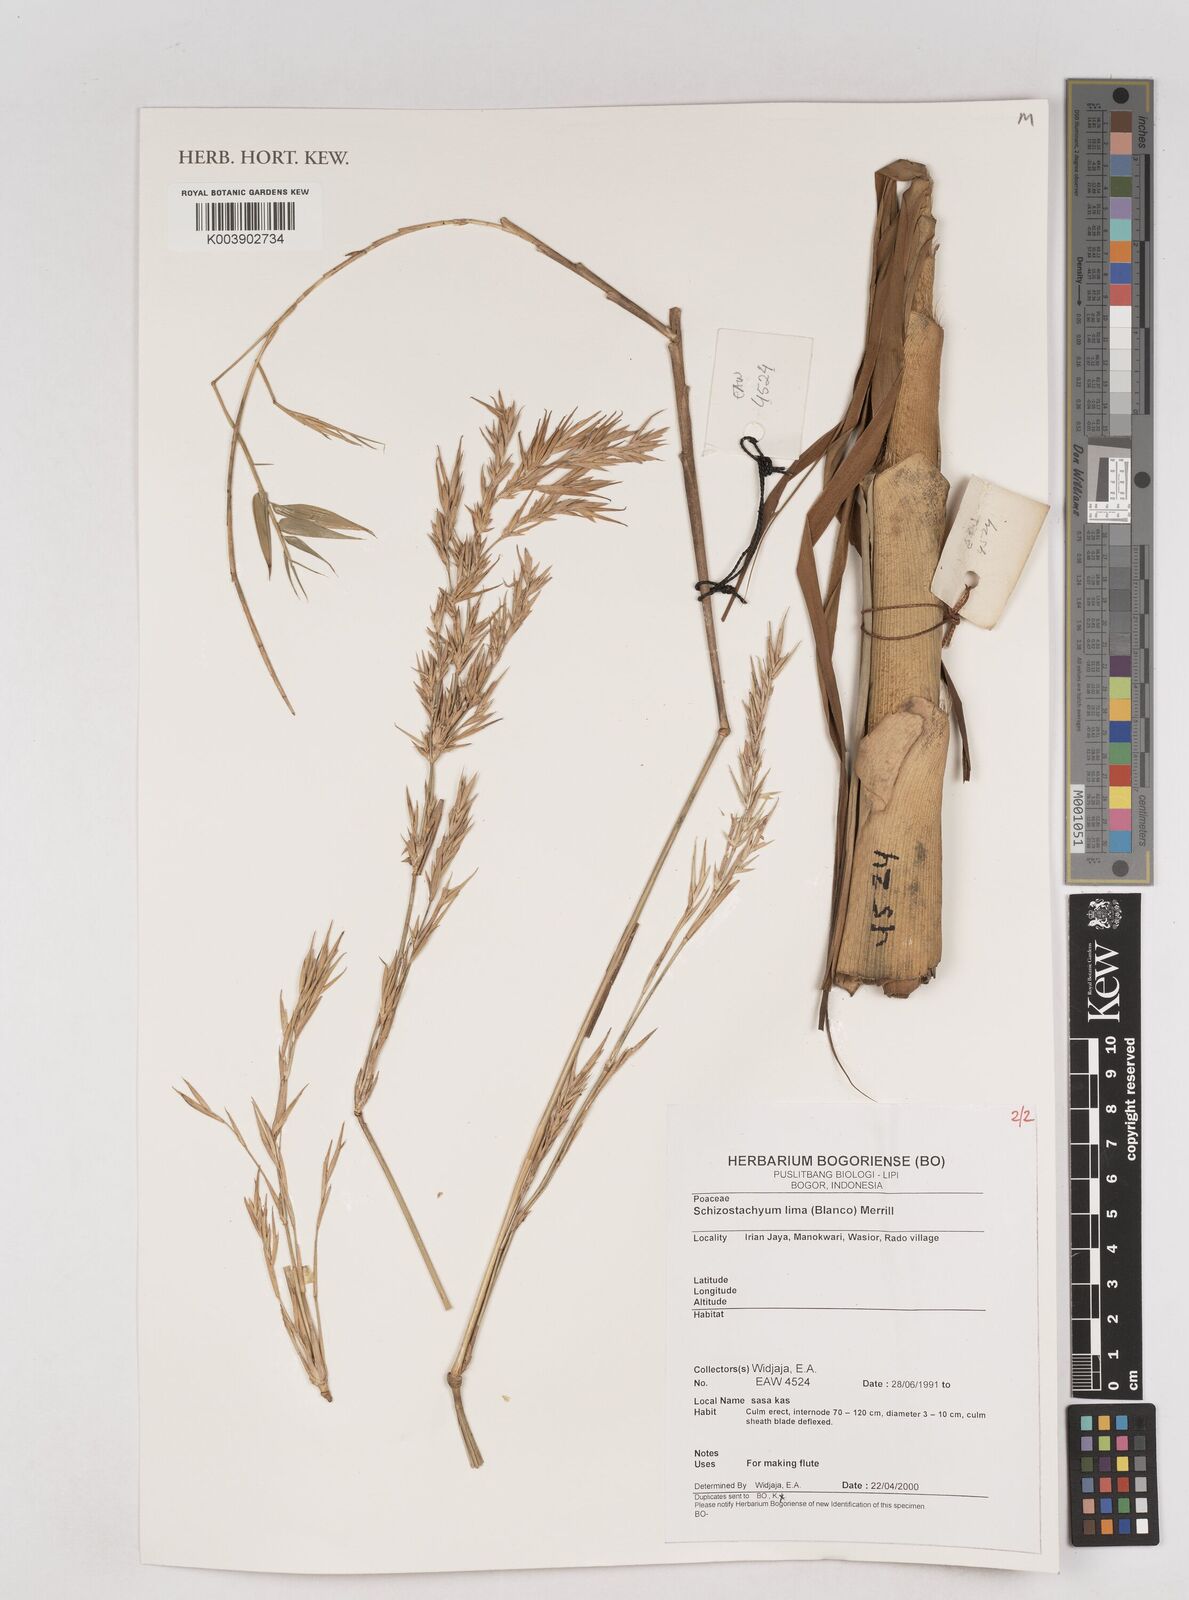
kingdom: Plantae
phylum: Tracheophyta
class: Liliopsida
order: Poales
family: Poaceae
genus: Schizostachyum
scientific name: Schizostachyum
